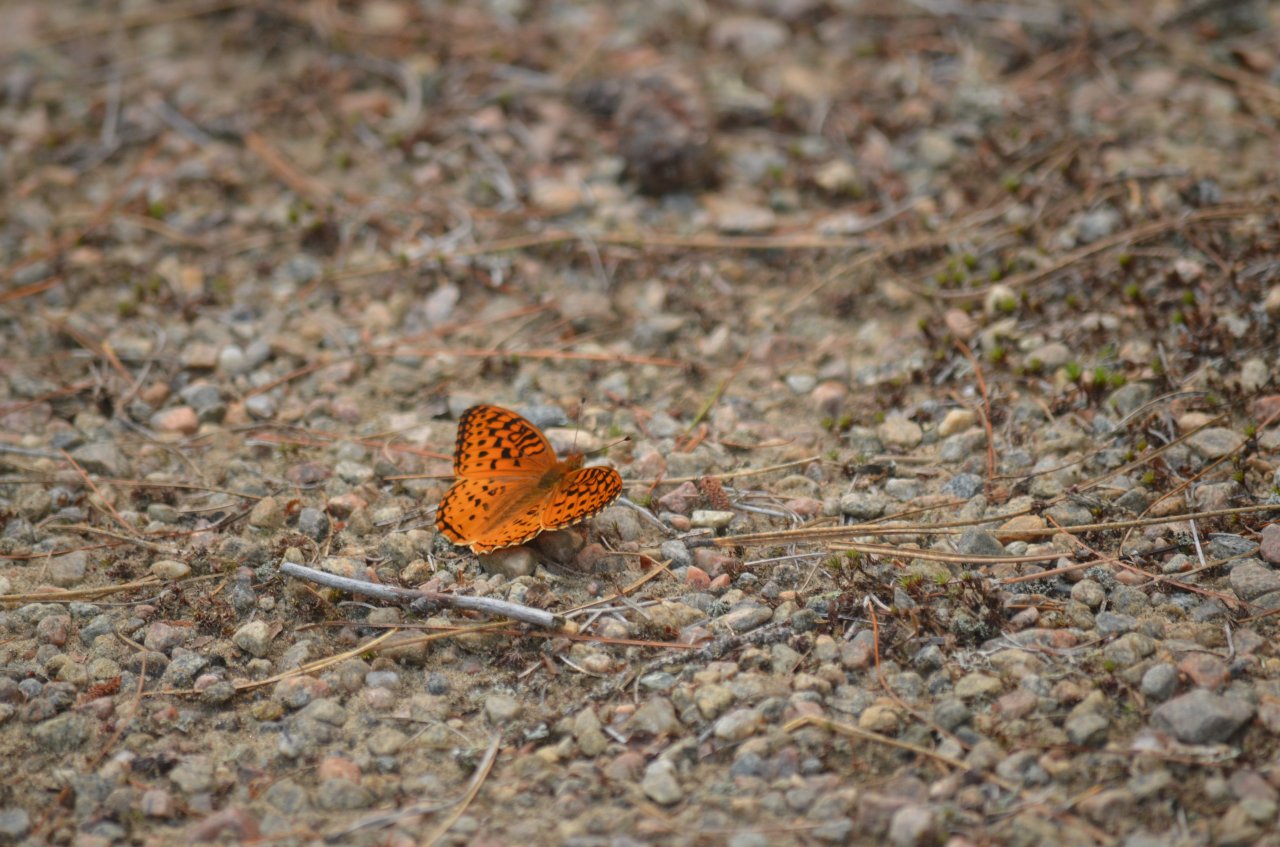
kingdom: Animalia
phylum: Arthropoda
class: Insecta
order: Lepidoptera
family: Nymphalidae
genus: Speyeria
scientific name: Speyeria aphrodite
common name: Aphrodite Fritillary
